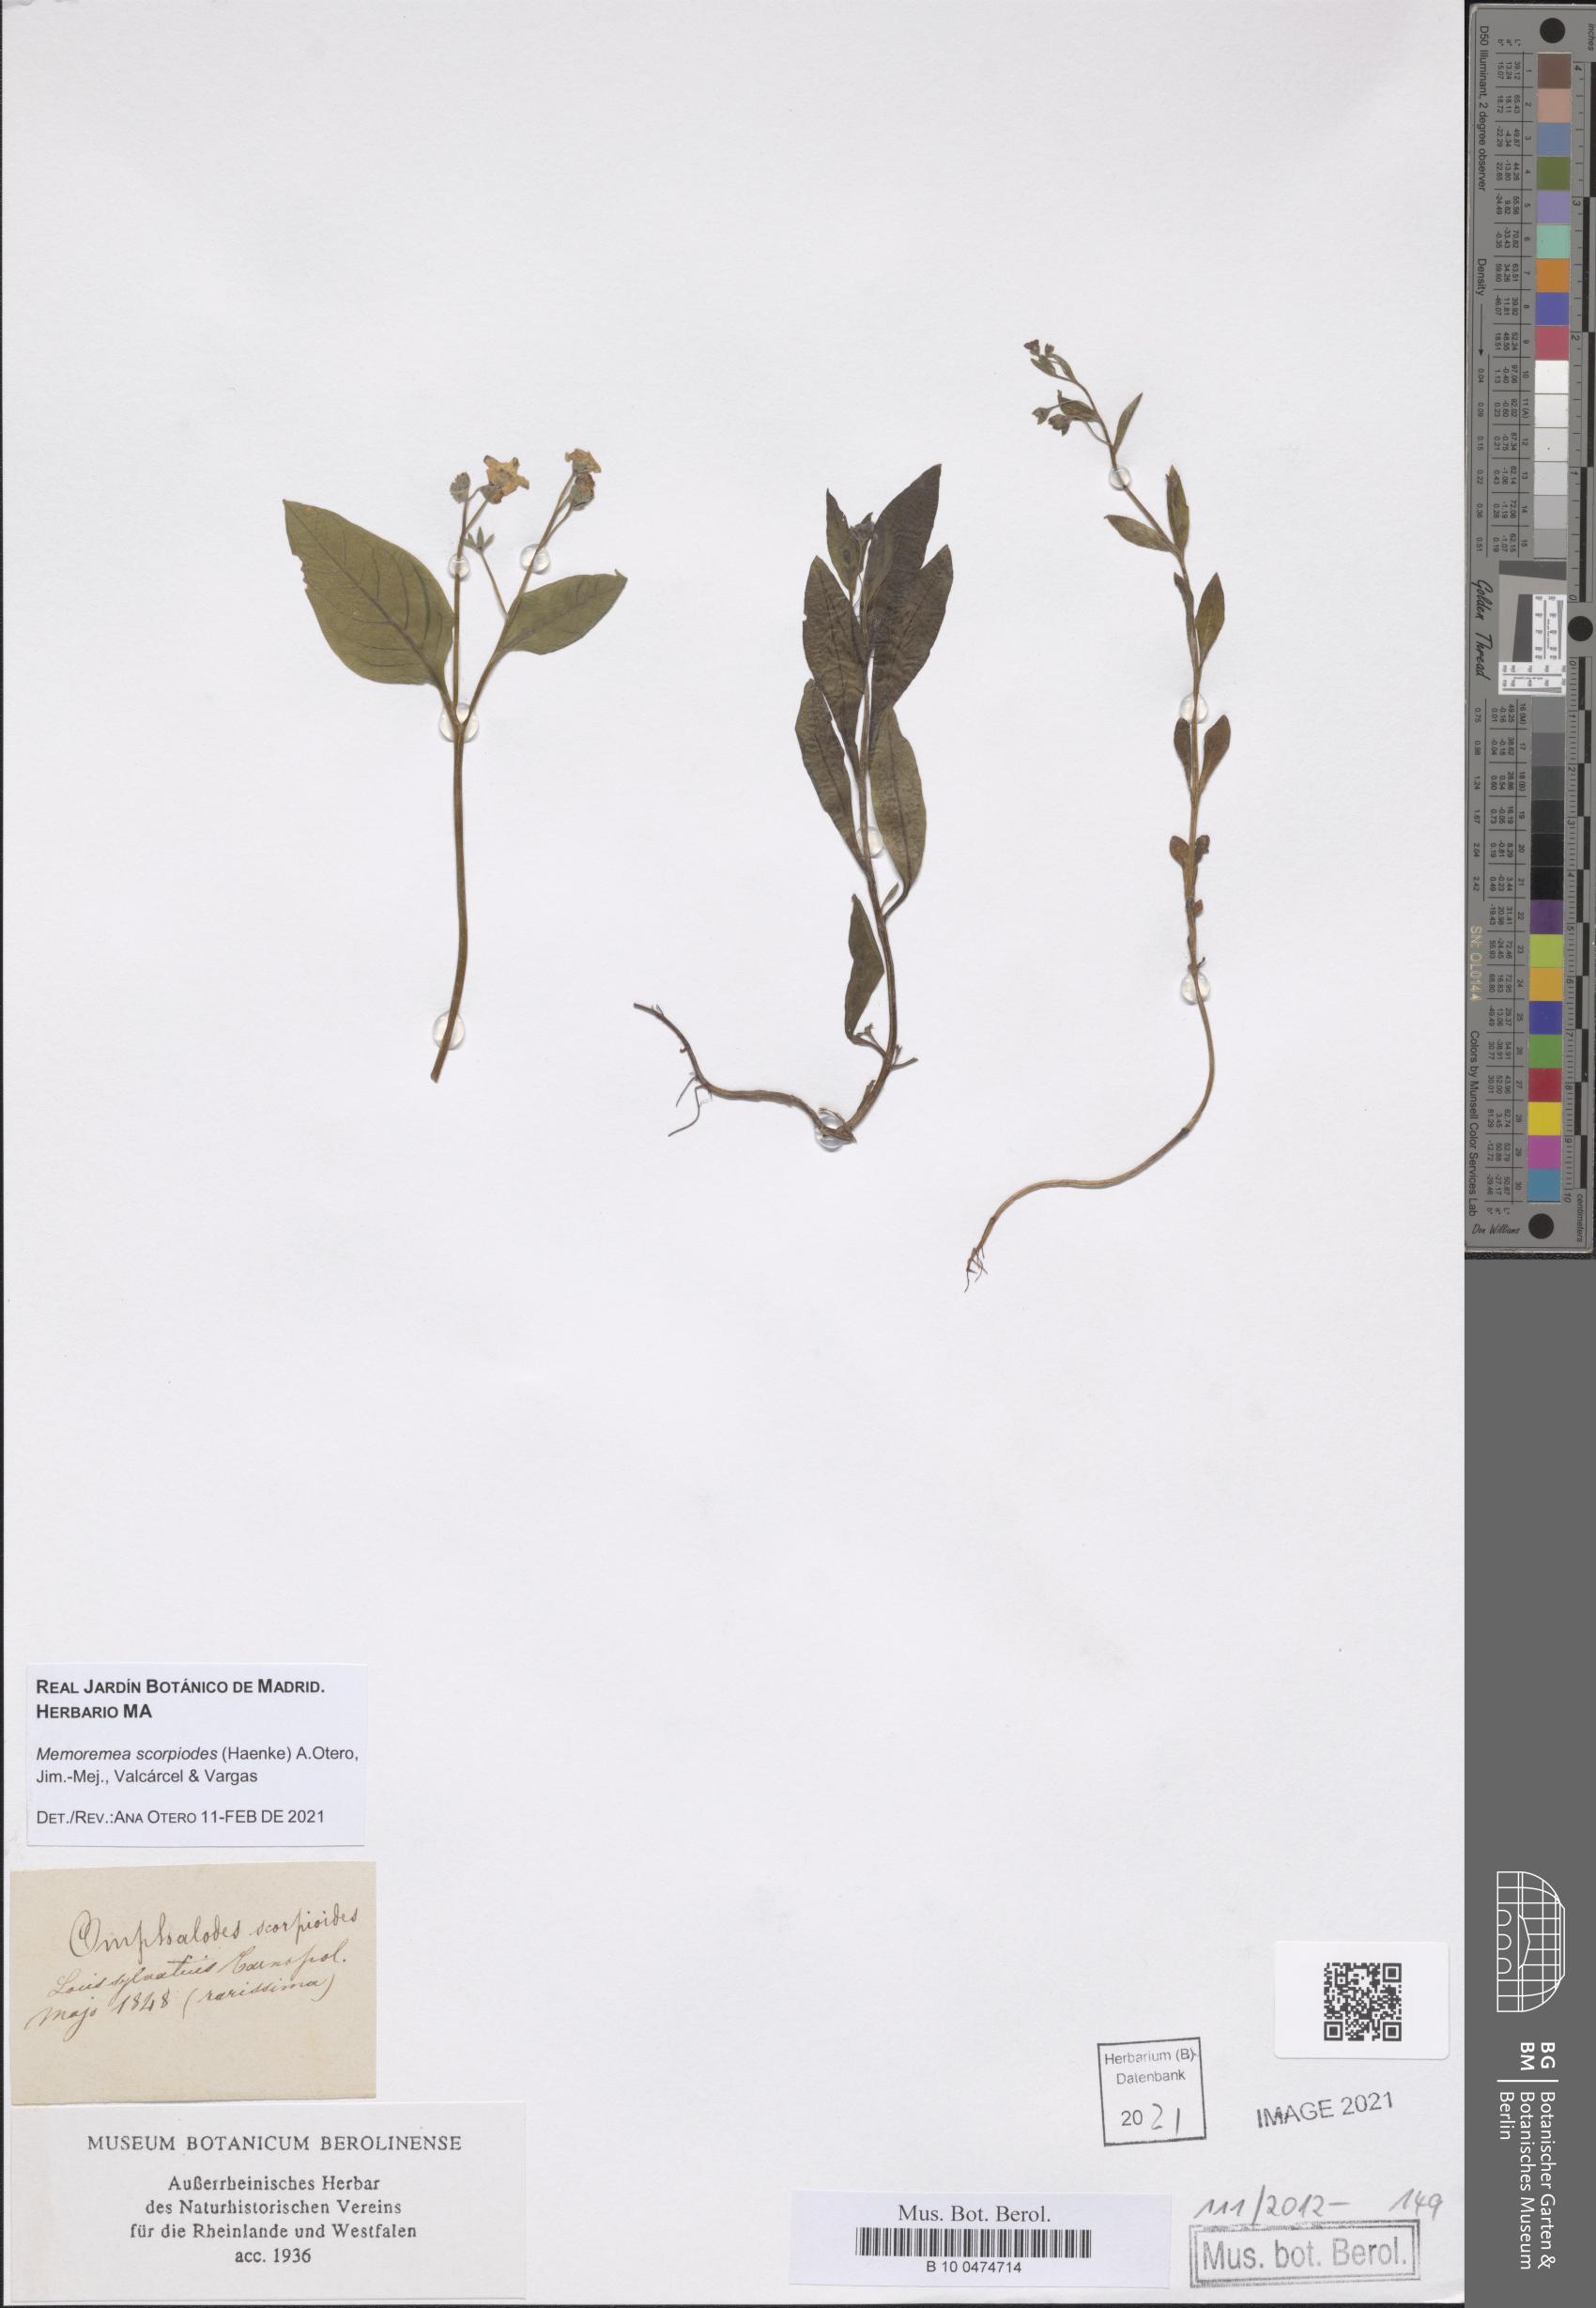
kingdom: Plantae
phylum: Tracheophyta
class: Magnoliopsida
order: Boraginales
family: Boraginaceae
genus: Memoremea
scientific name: Memoremea scorpioides
